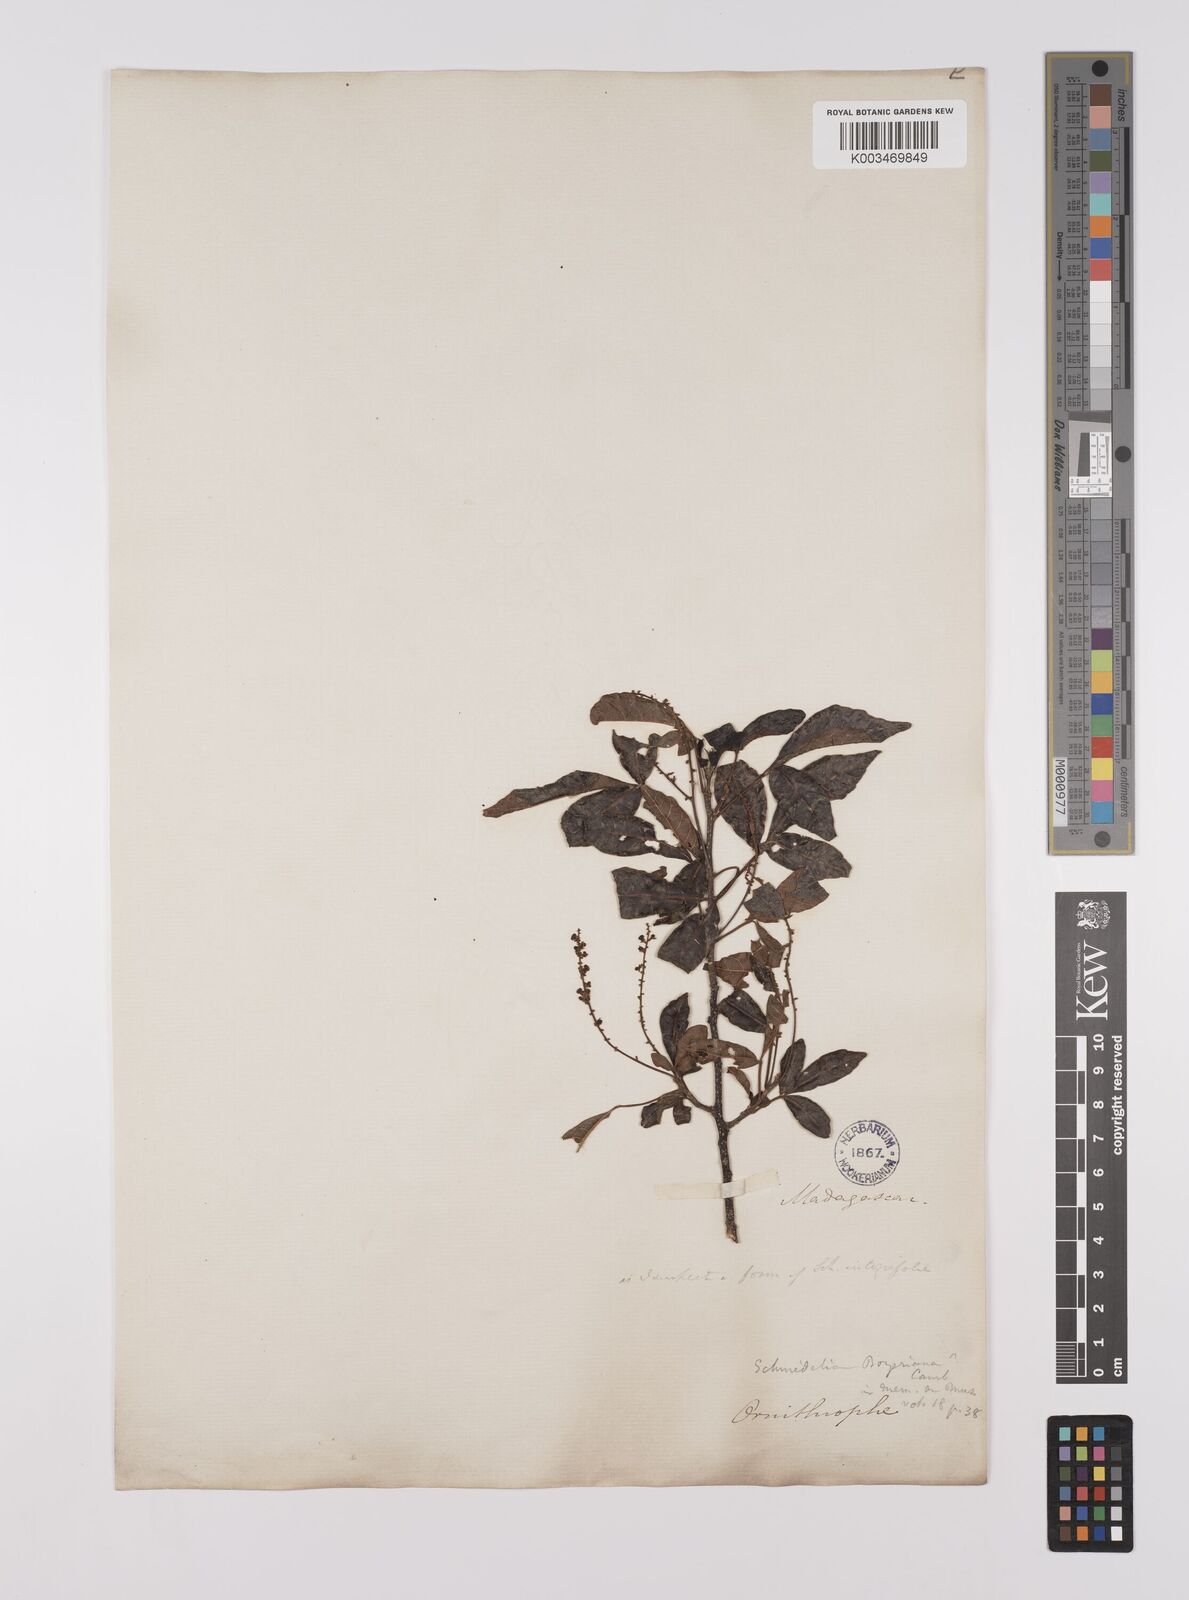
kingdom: Plantae
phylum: Tracheophyta
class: Magnoliopsida
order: Sapindales
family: Sapindaceae
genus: Allophylus
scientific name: Allophylus
